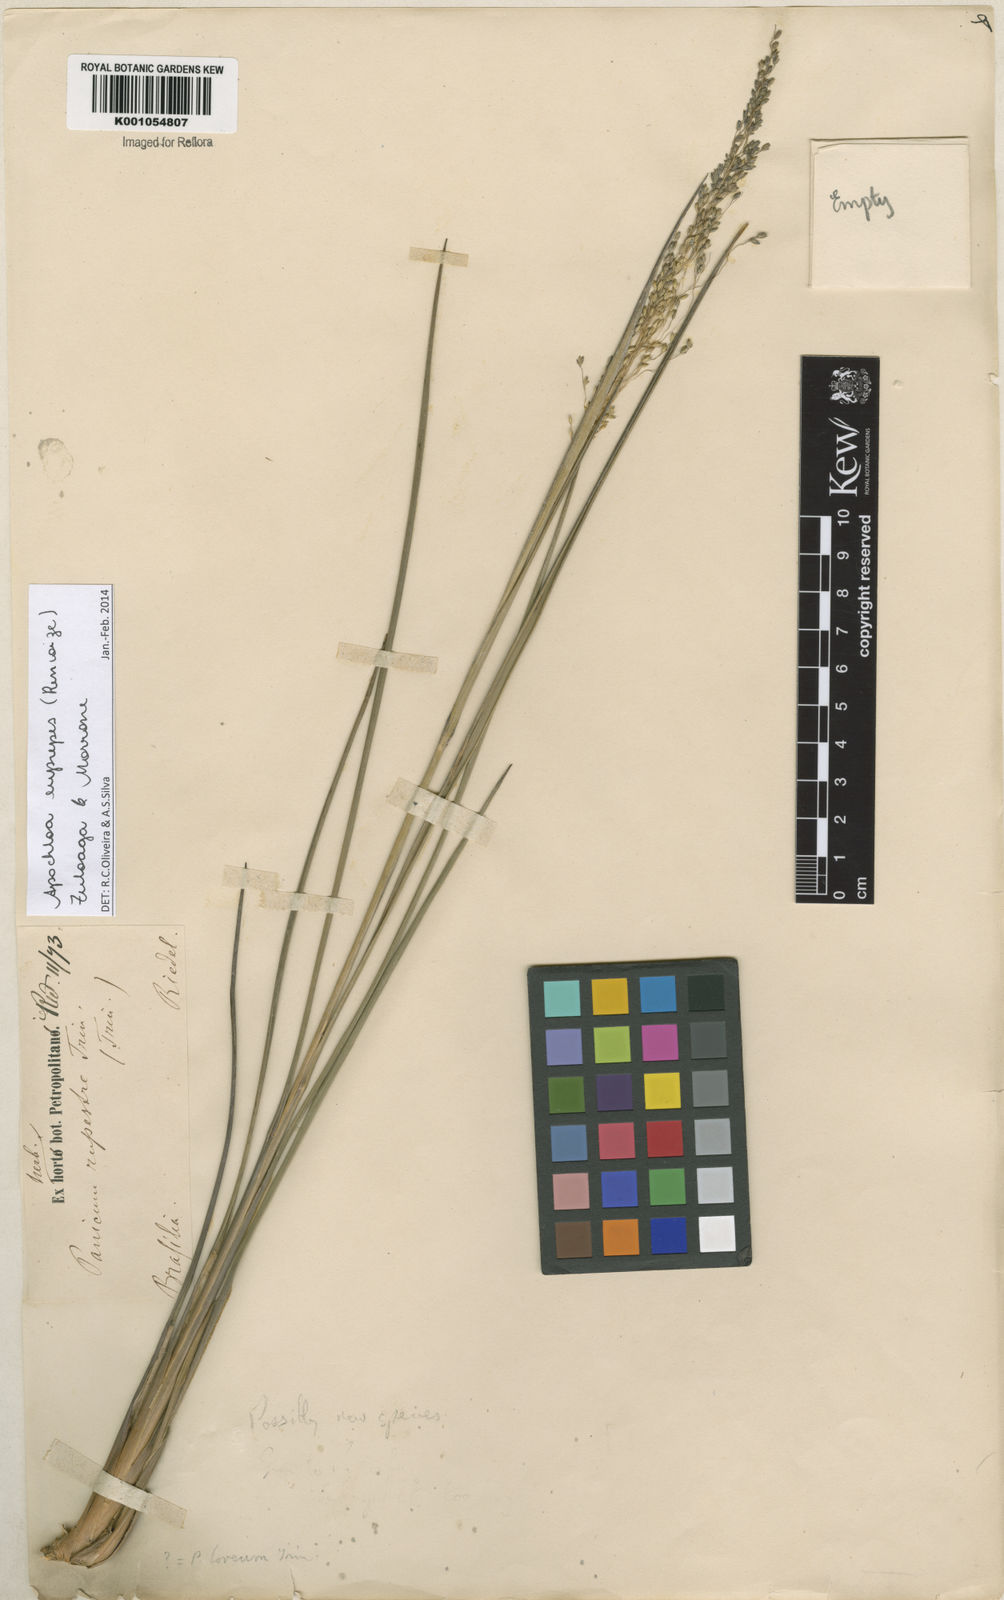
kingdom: Plantae
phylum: Tracheophyta
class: Liliopsida
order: Poales
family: Poaceae
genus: Apochloa
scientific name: Apochloa euprepes
